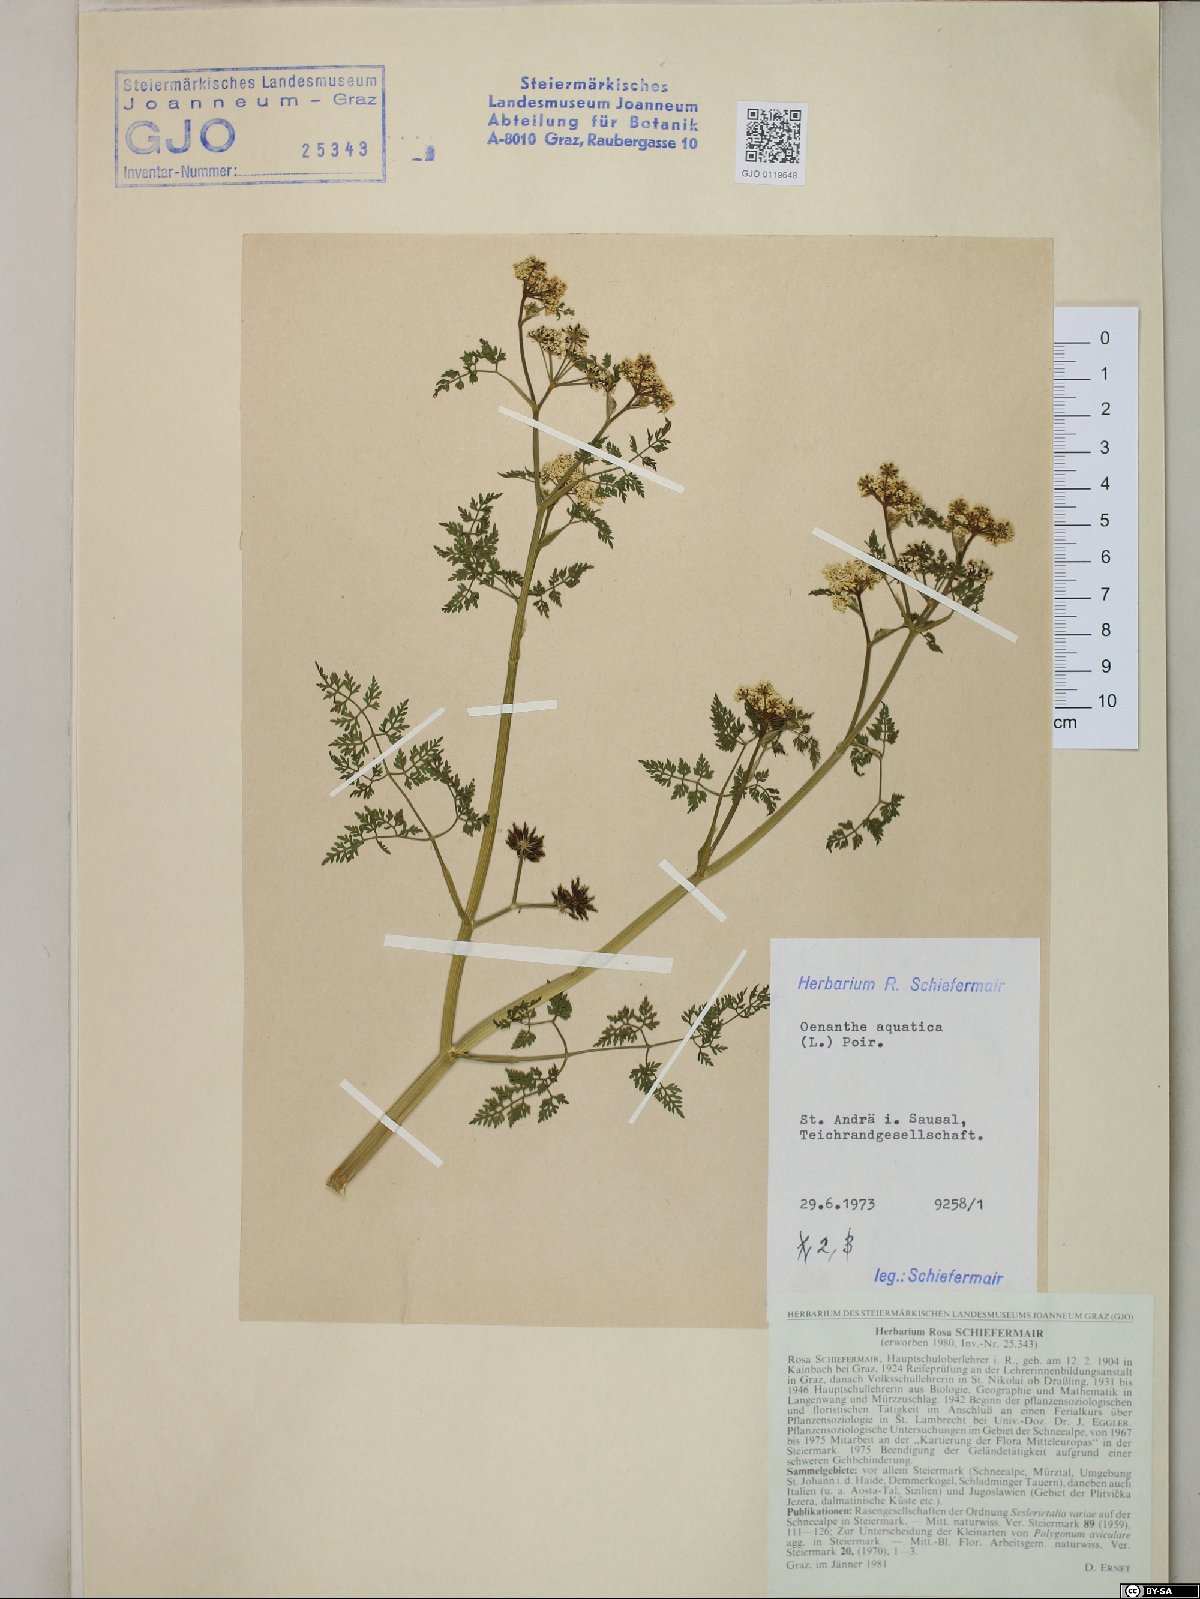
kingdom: Plantae
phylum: Tracheophyta
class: Magnoliopsida
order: Apiales
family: Apiaceae
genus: Oenanthe
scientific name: Oenanthe aquatica
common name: Fine-leaved water-dropwort
